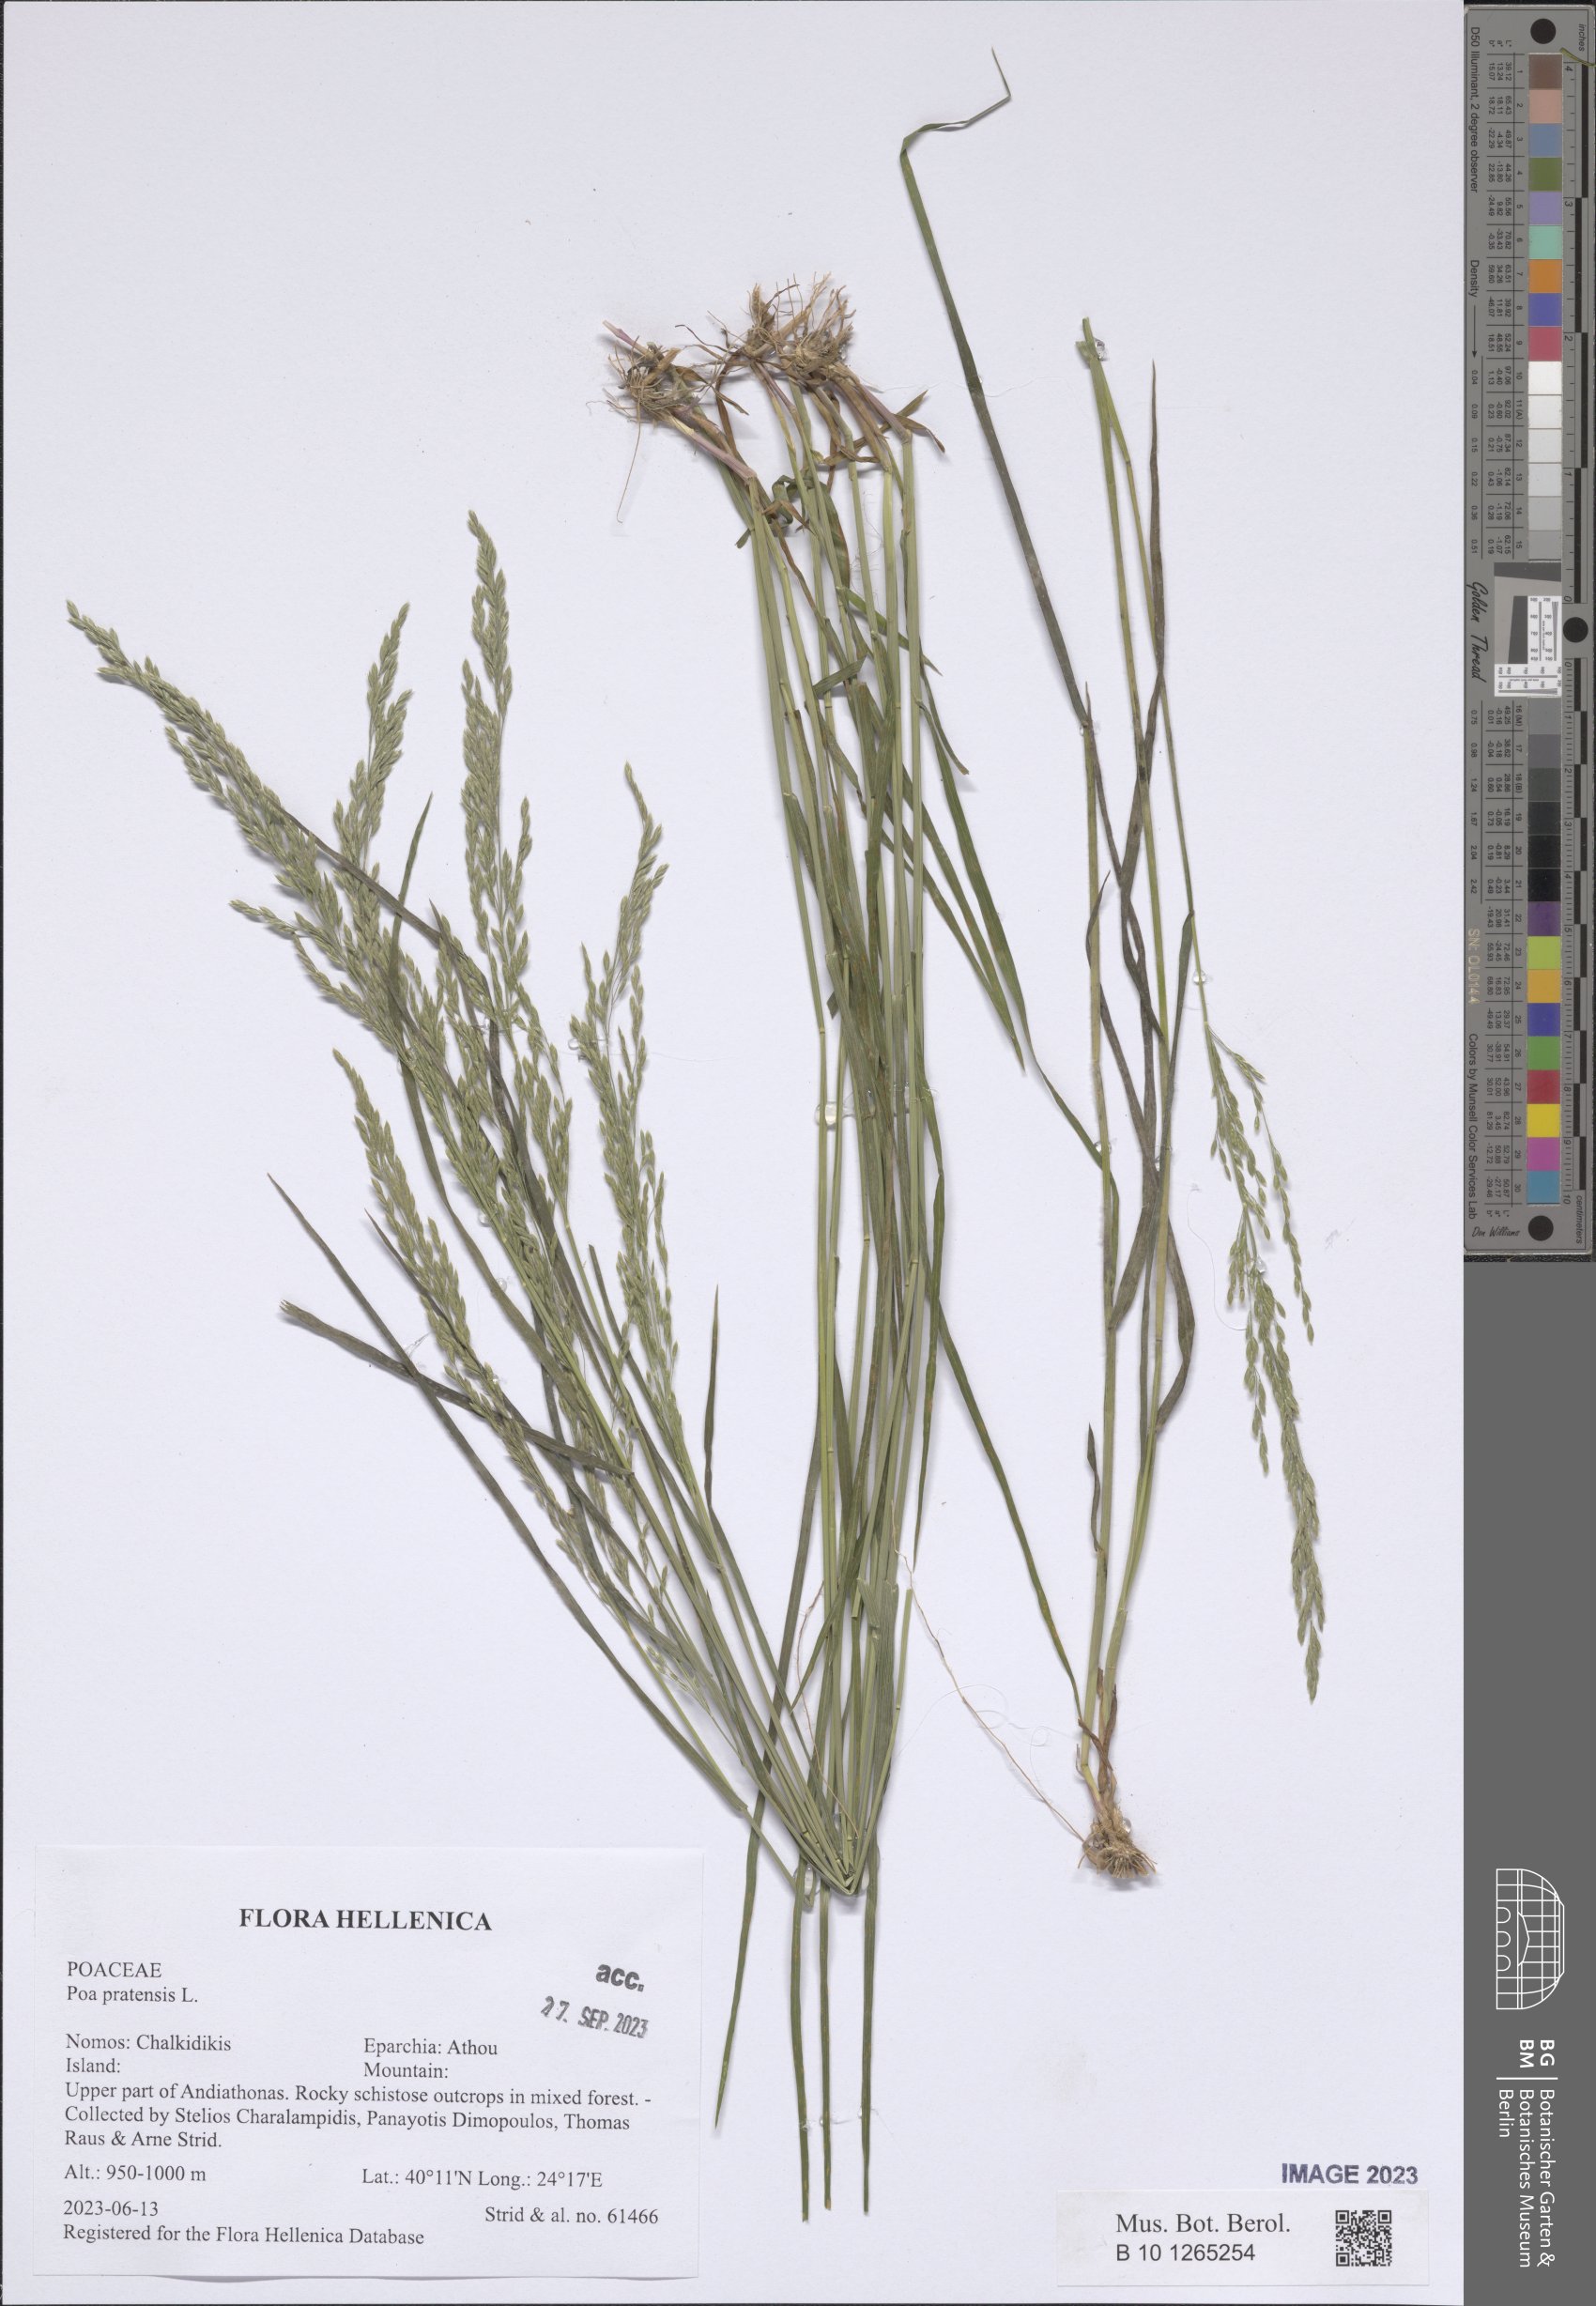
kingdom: Plantae
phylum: Tracheophyta
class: Liliopsida
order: Poales
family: Poaceae
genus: Poa
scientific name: Poa pratensis
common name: Kentucky bluegrass
